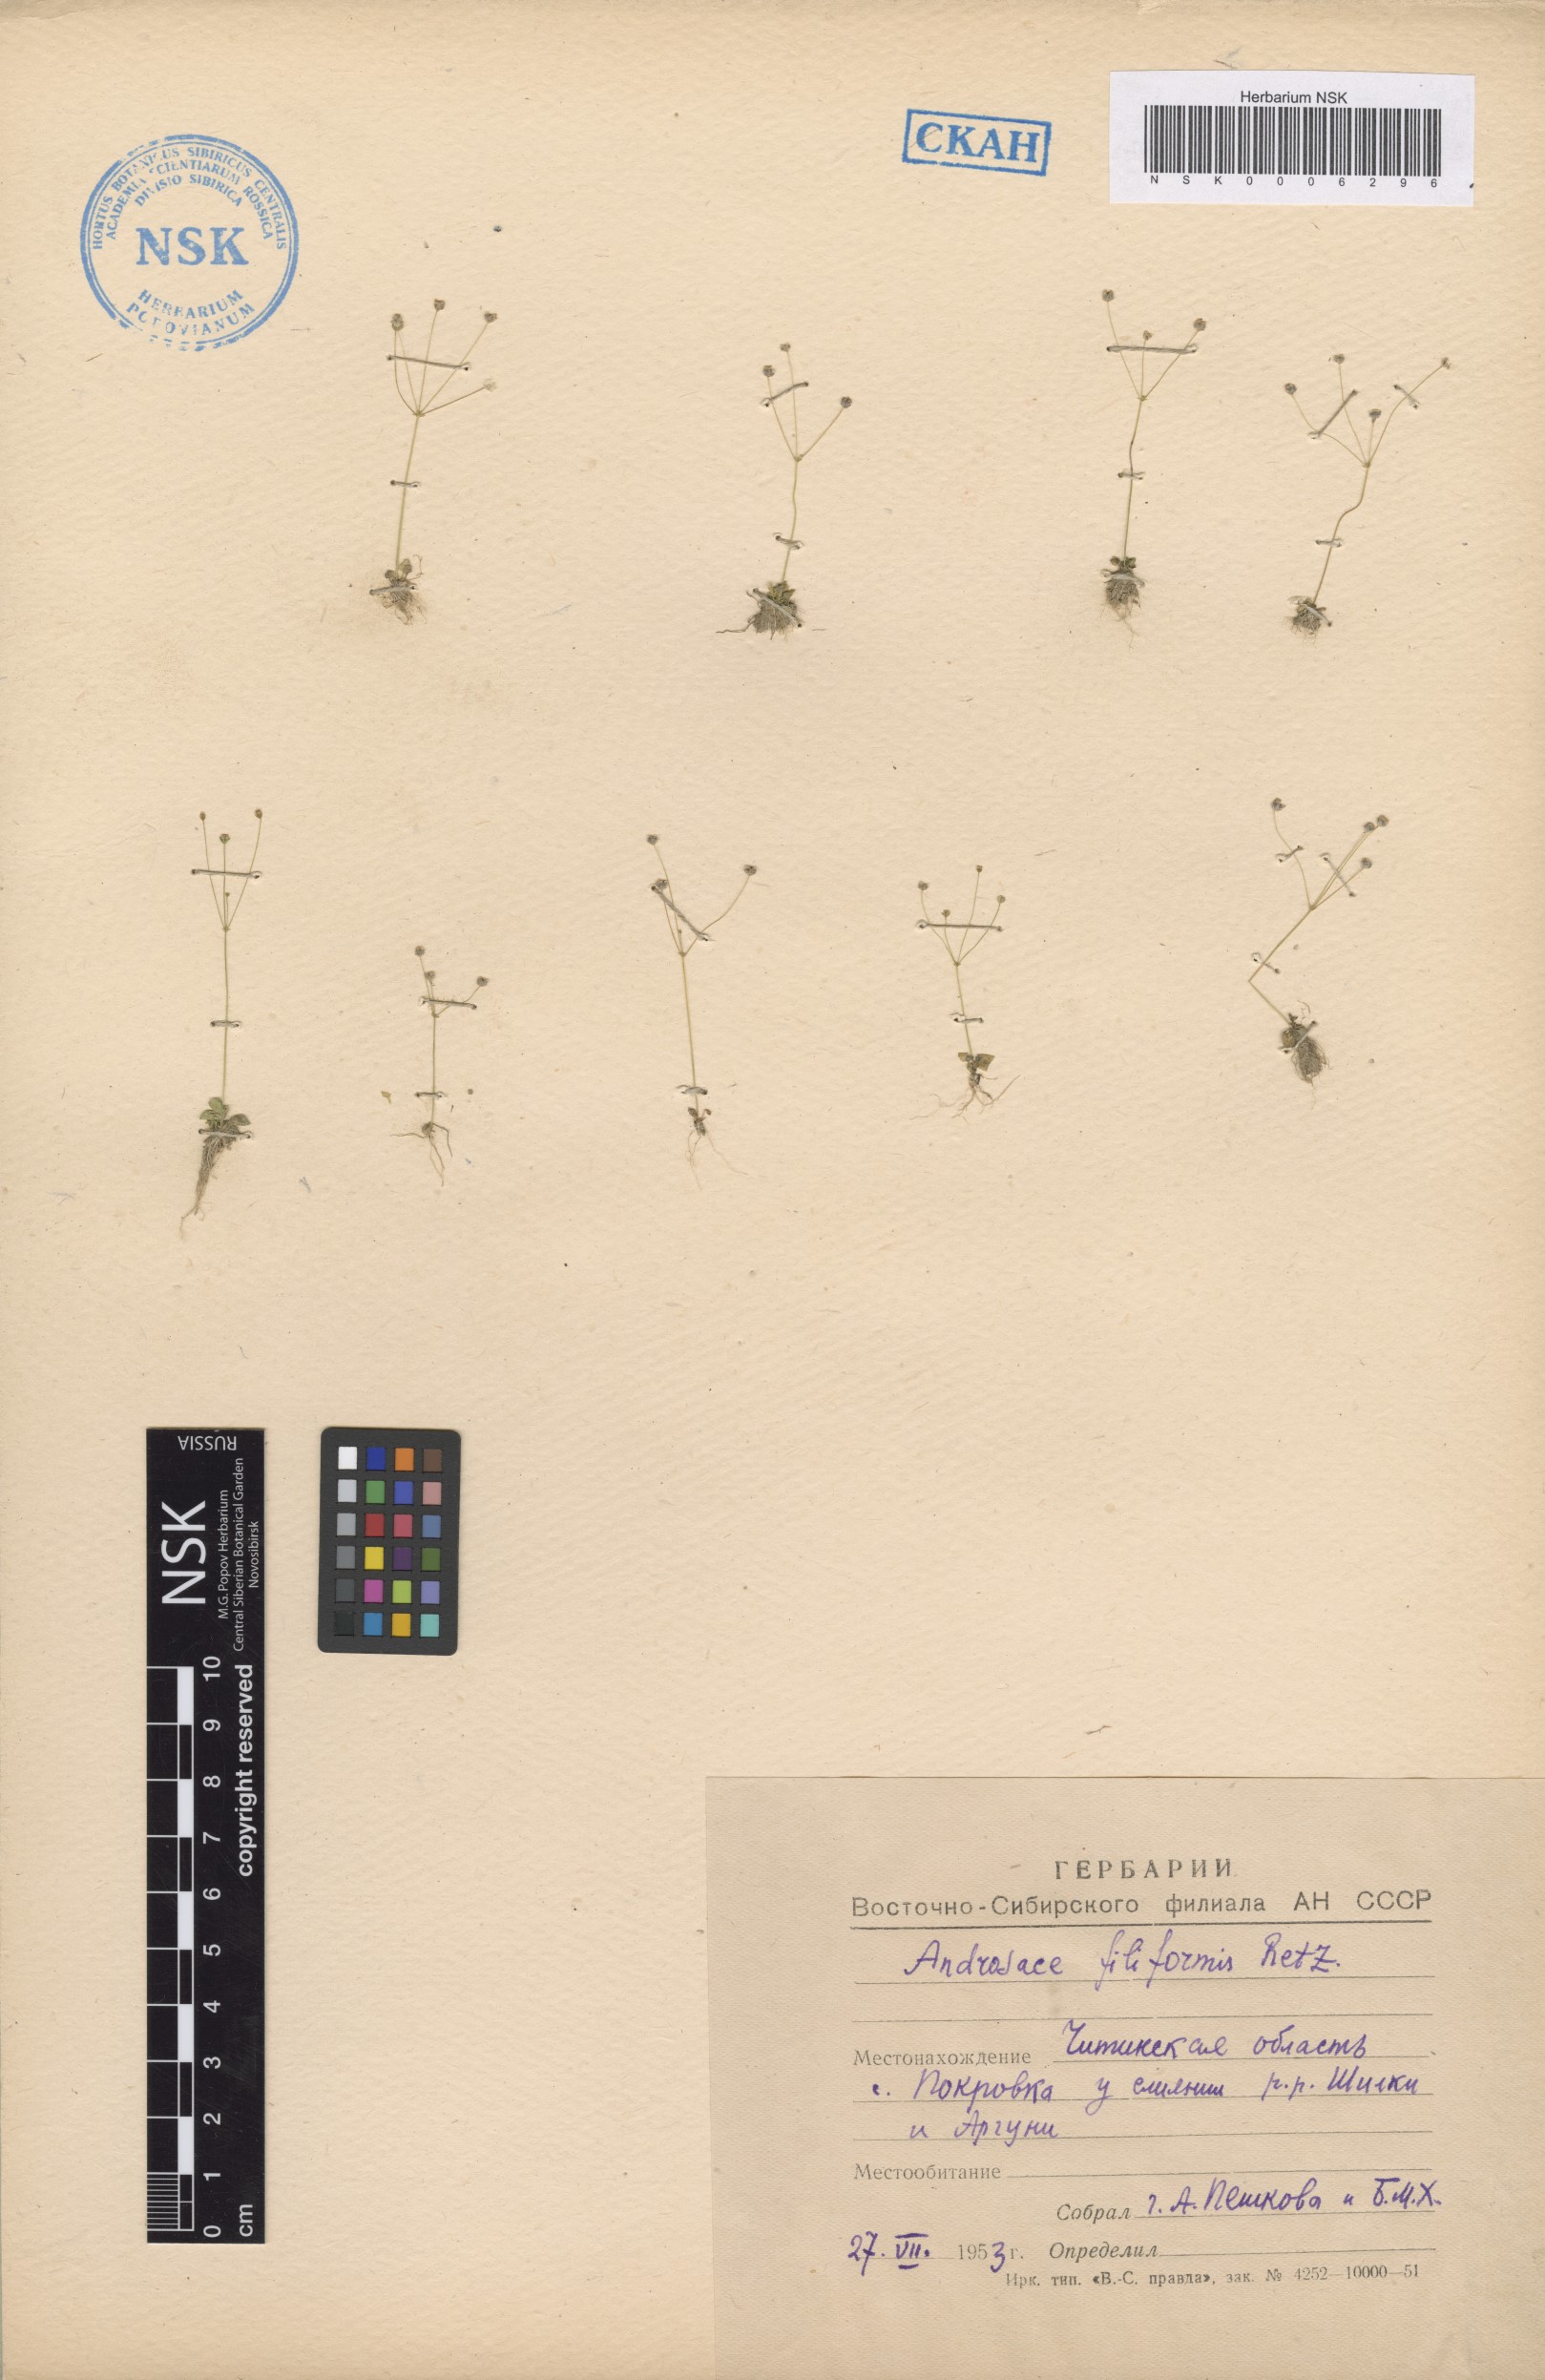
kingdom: Plantae
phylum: Tracheophyta
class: Magnoliopsida
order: Ericales
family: Primulaceae
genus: Androsace
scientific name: Androsace filiformis
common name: Filiform rock jasmine
